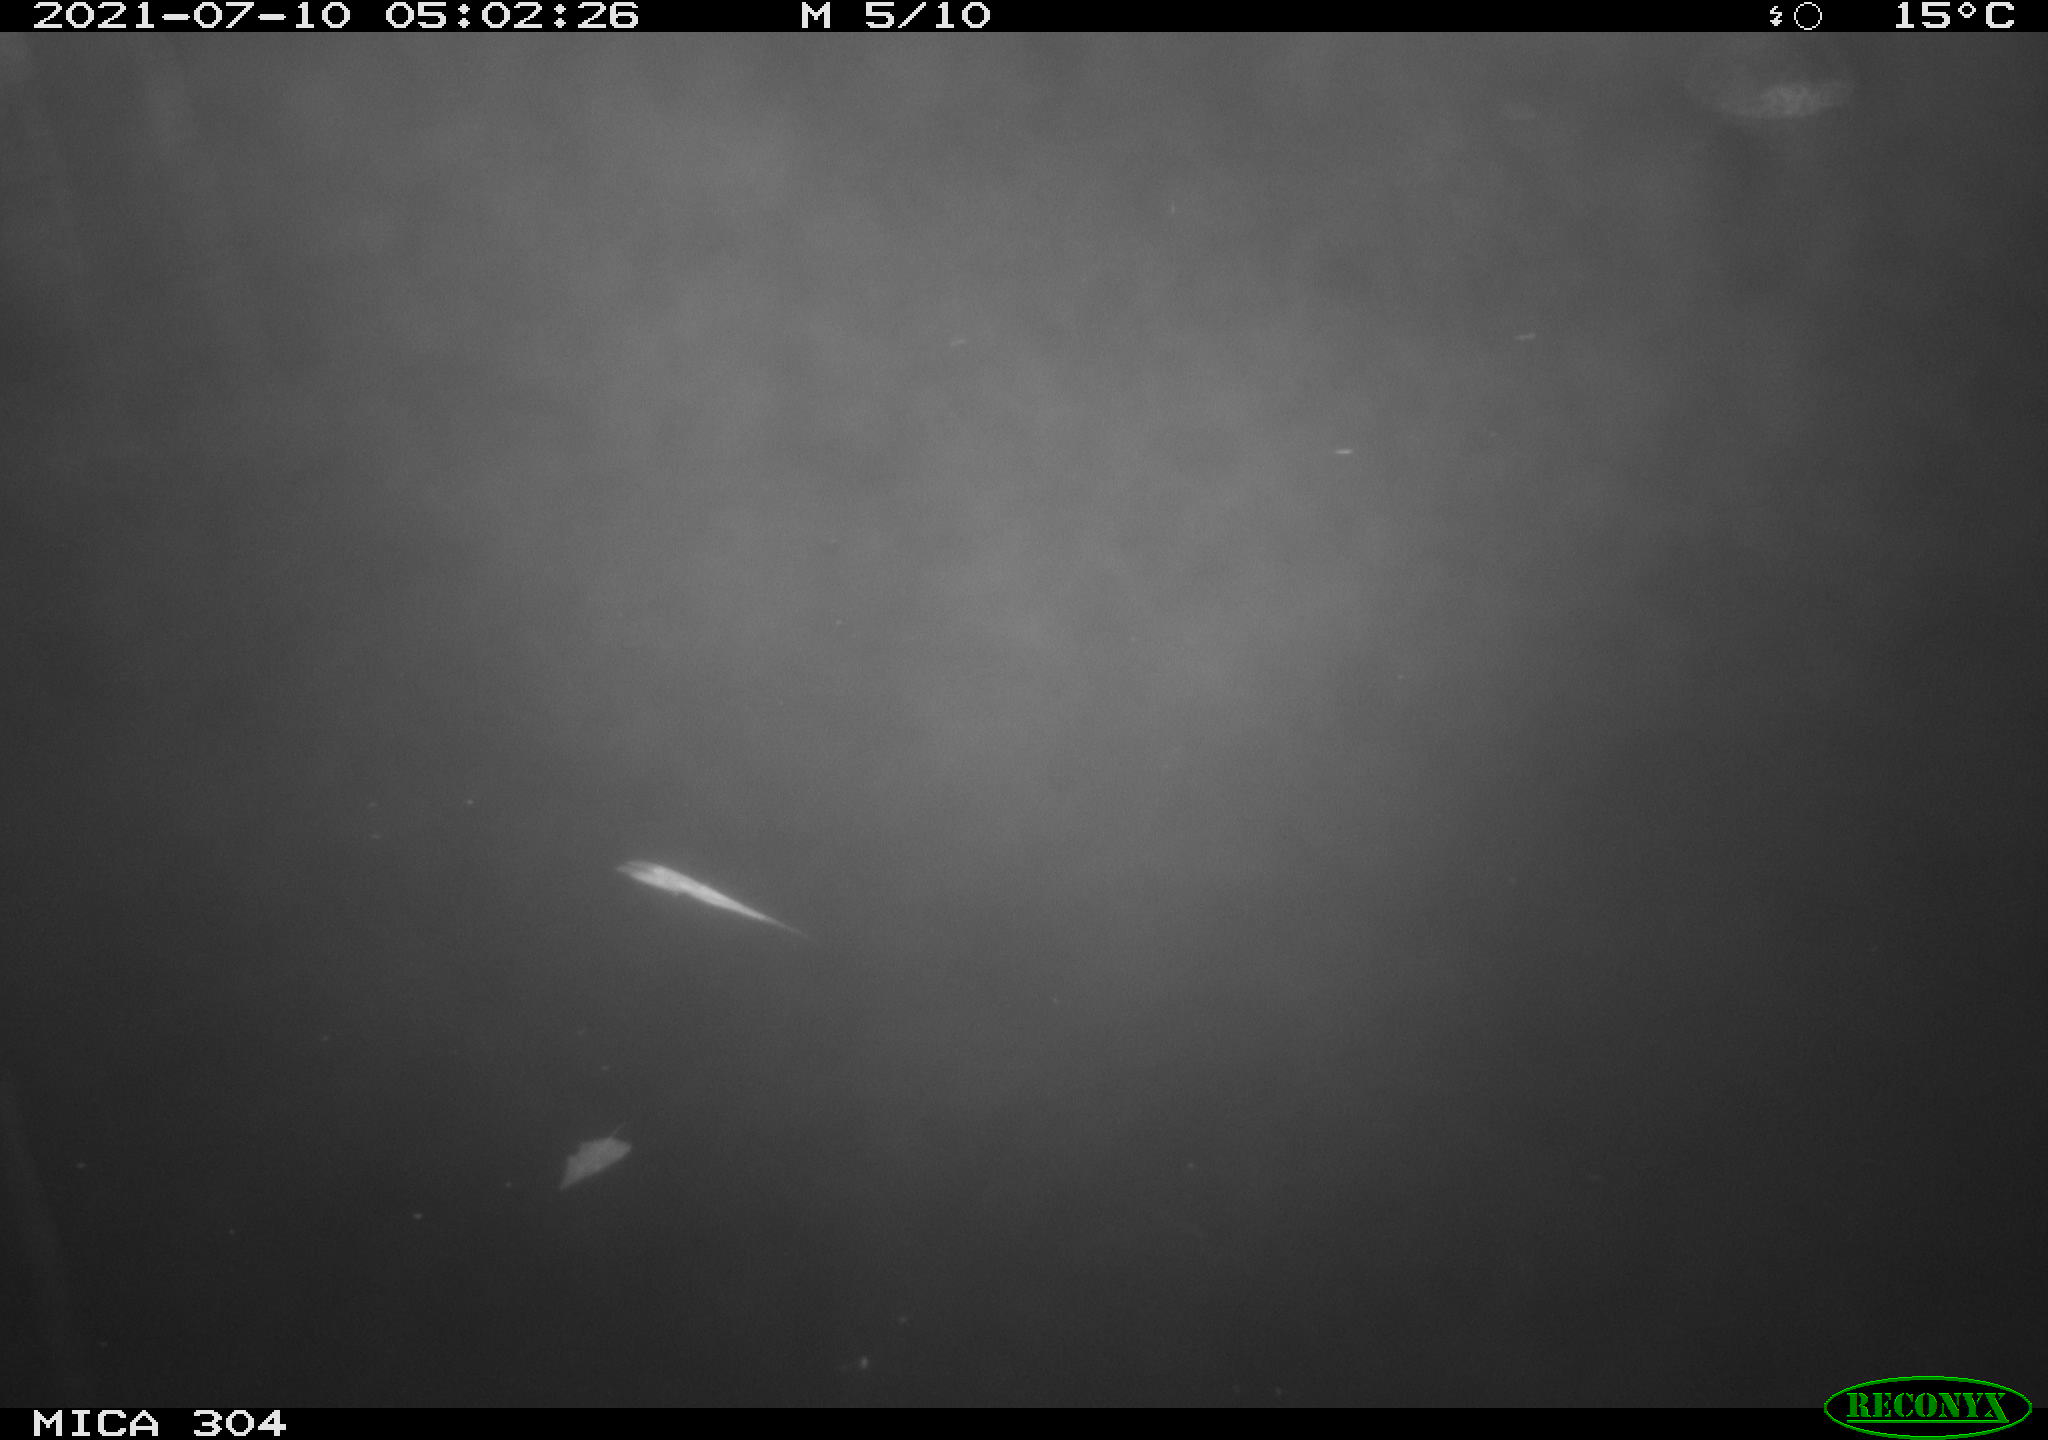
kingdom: Animalia
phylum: Chordata
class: Aves
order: Anseriformes
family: Anatidae
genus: Anas
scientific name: Anas platyrhynchos
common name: Mallard
